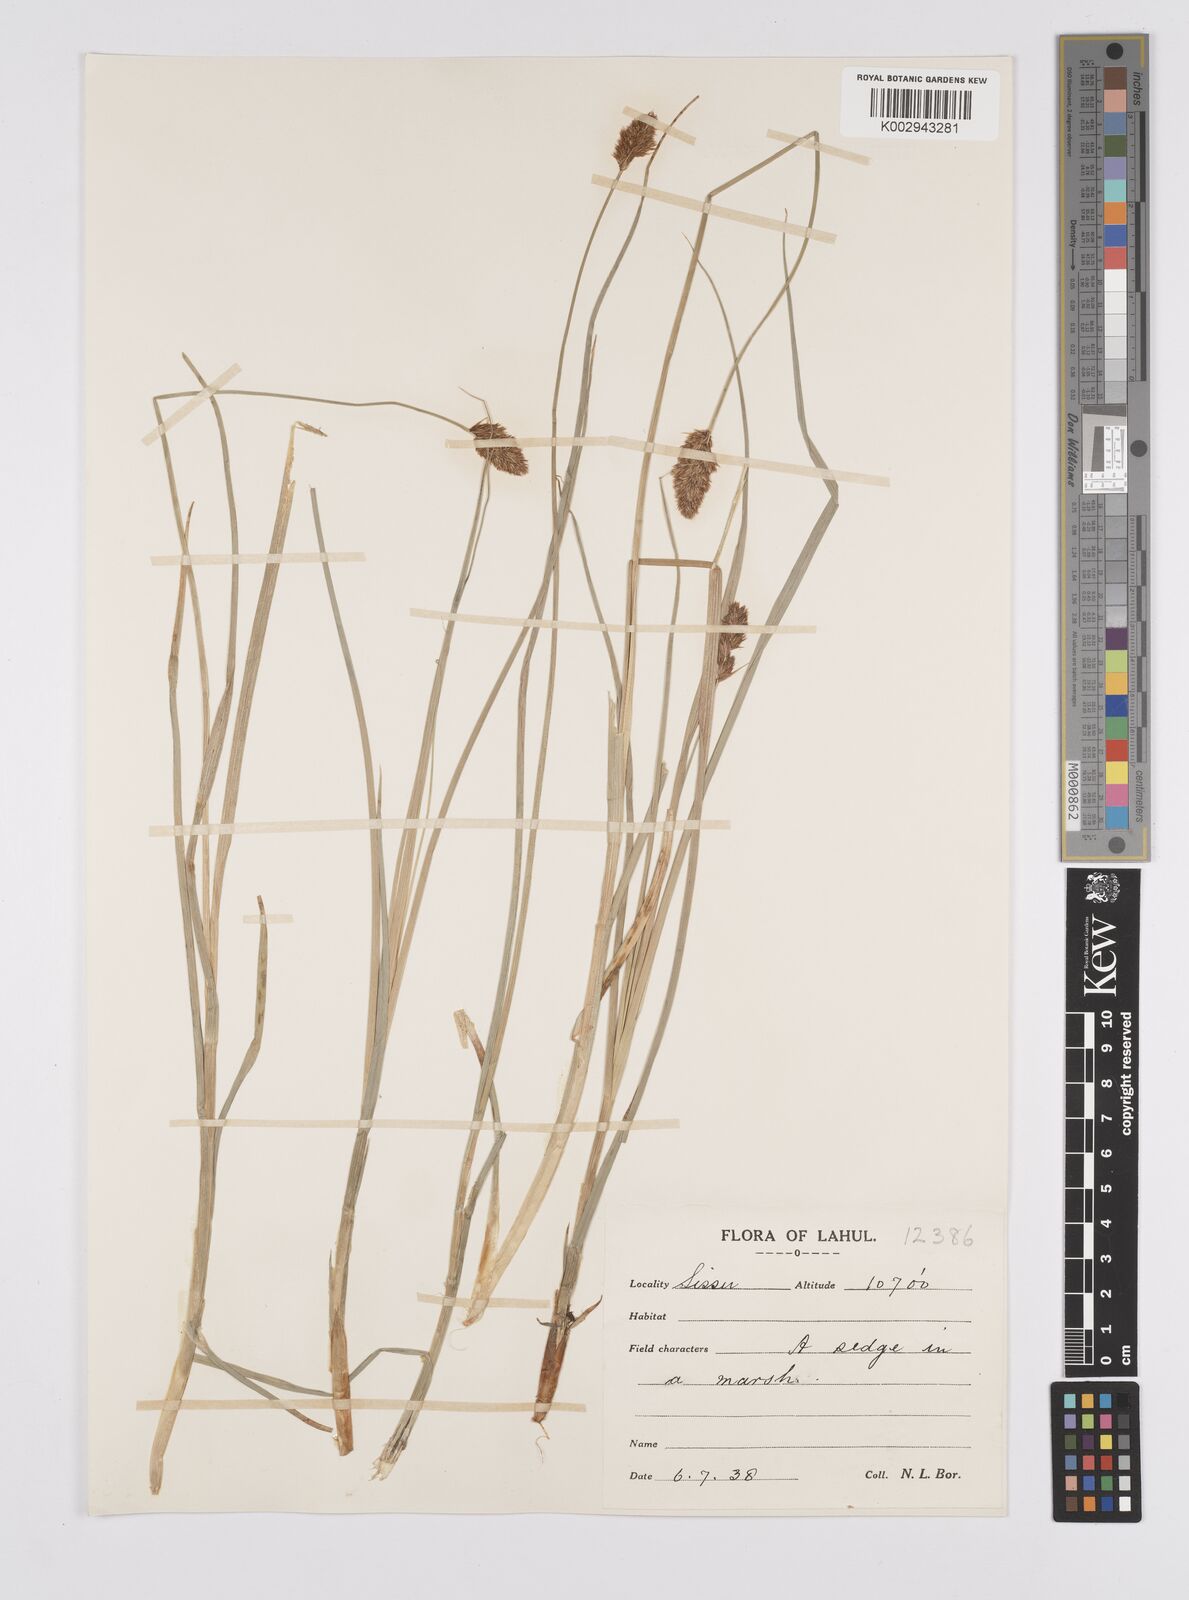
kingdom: Plantae
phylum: Tracheophyta
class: Liliopsida
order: Poales
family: Cyperaceae
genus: Carex
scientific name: Carex vulpinaris
